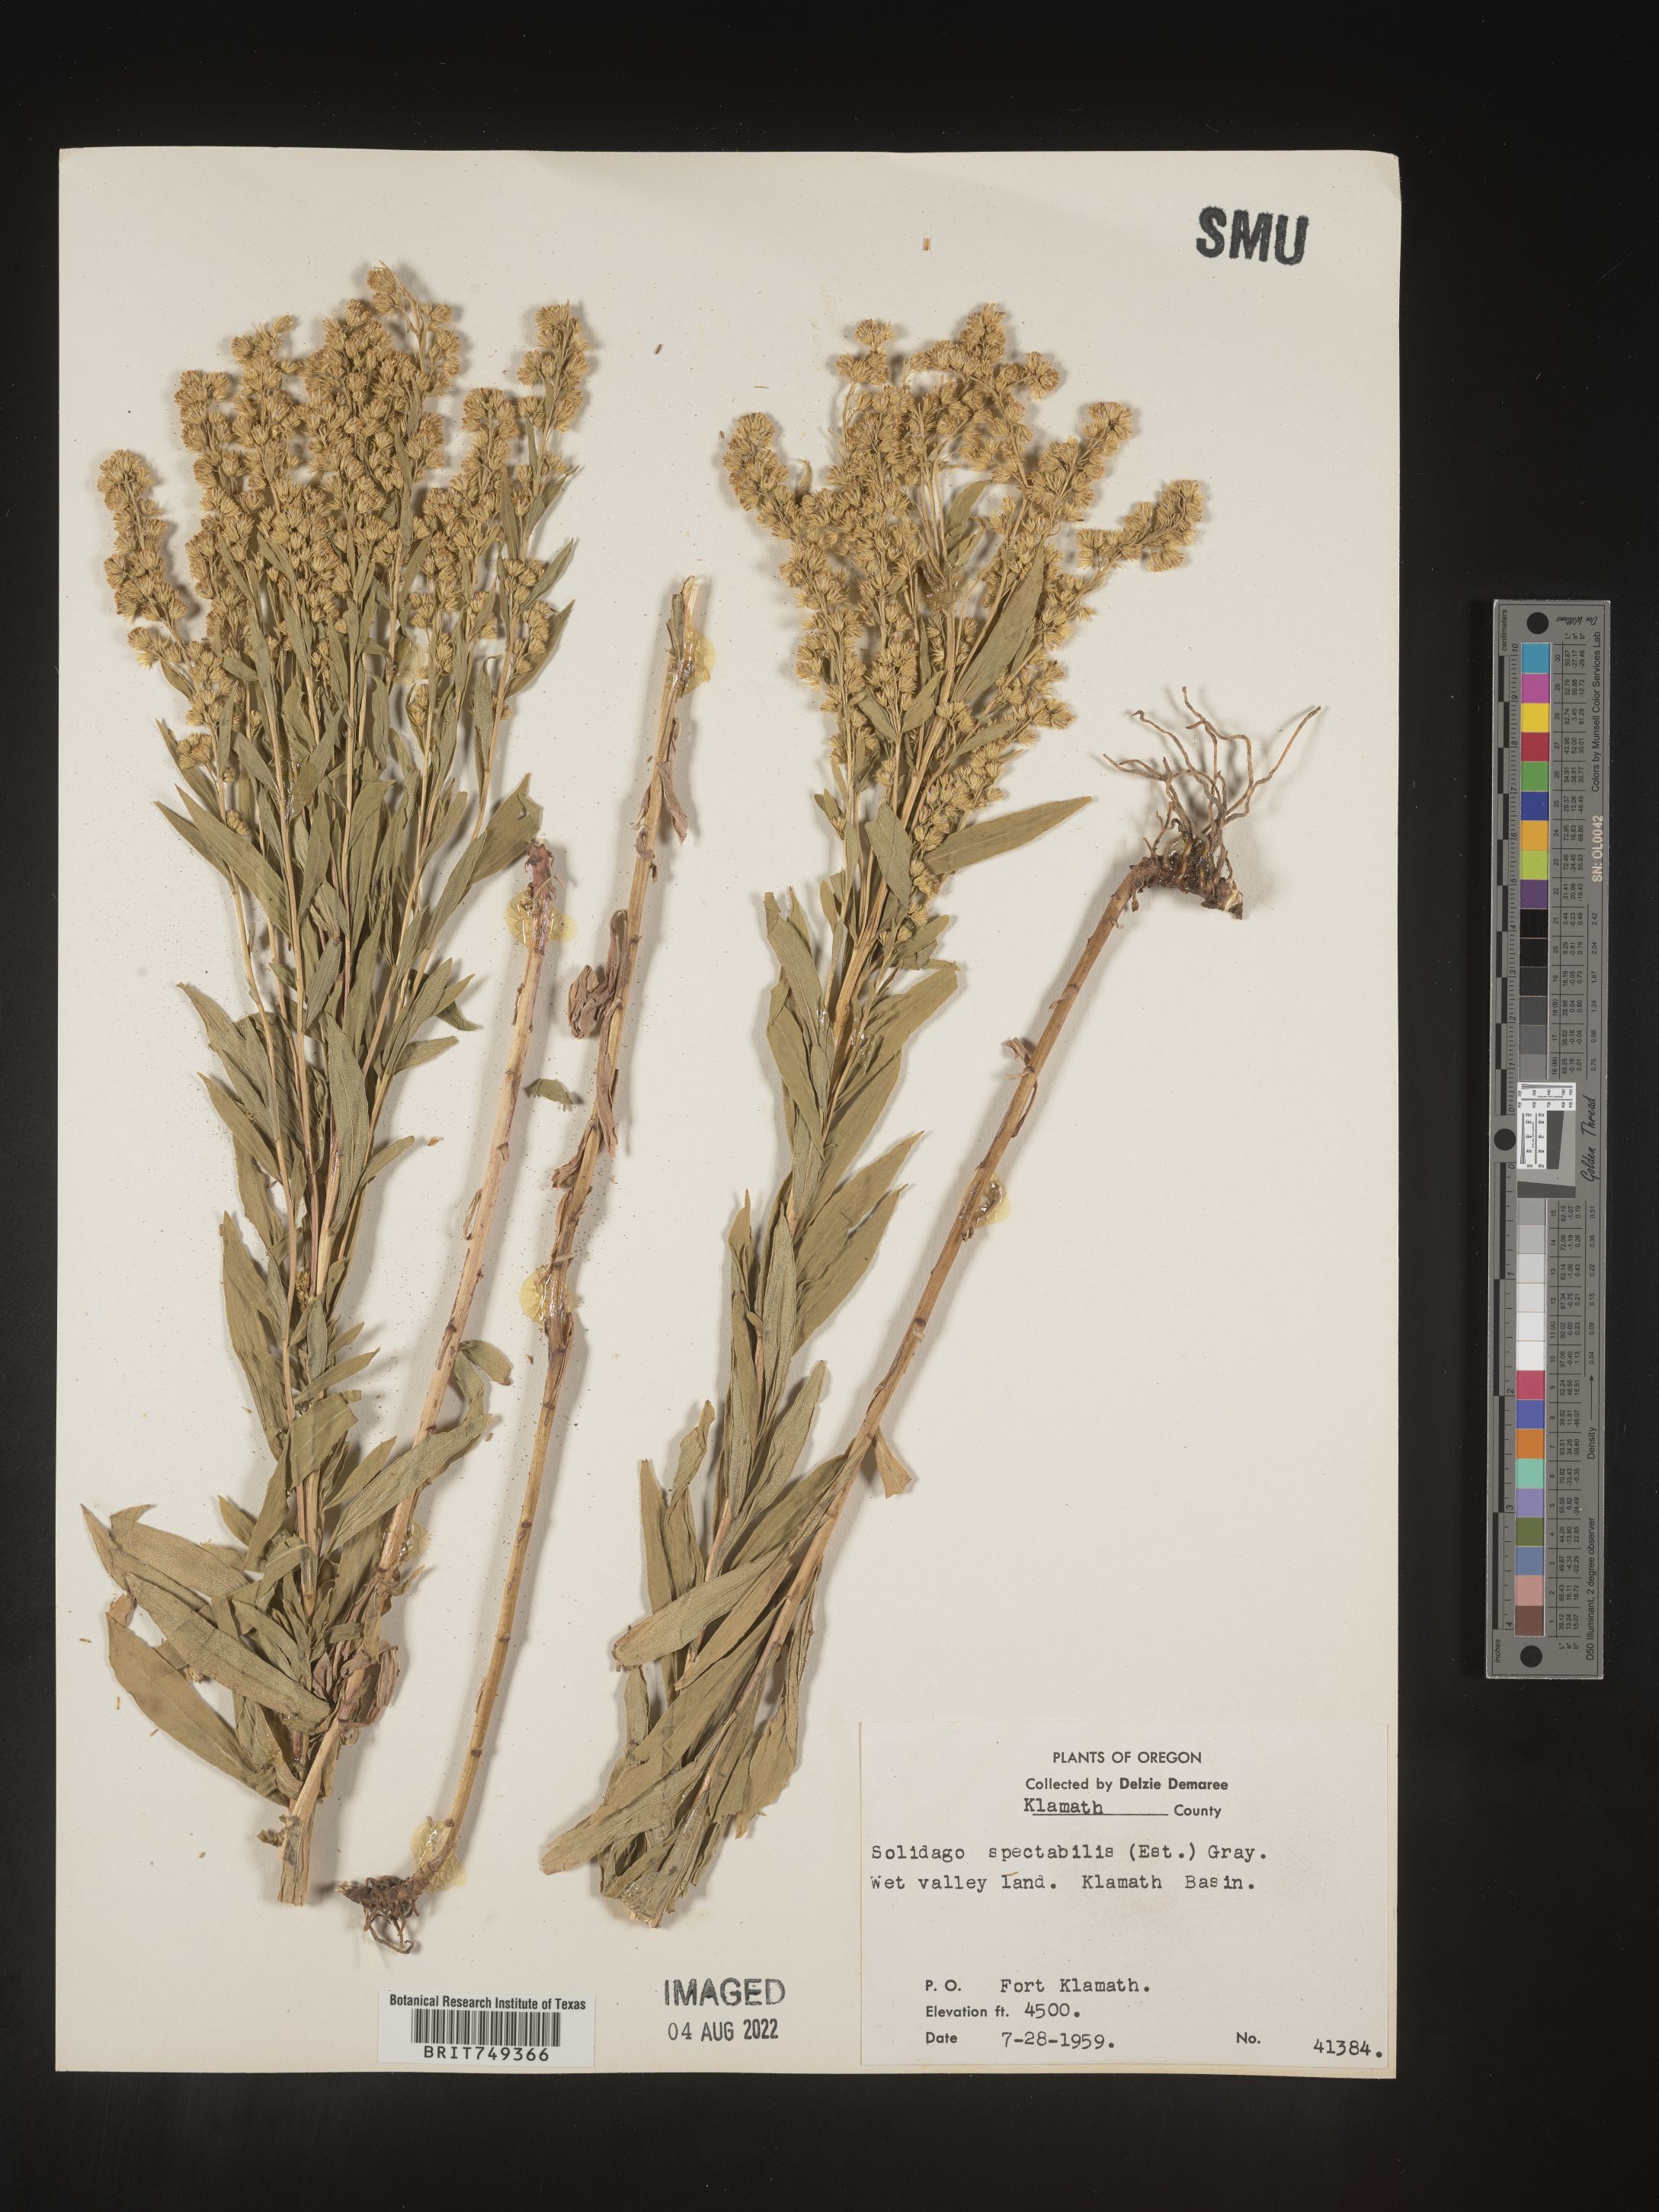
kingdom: Plantae
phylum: Tracheophyta
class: Magnoliopsida
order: Asterales
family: Asteraceae
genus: Solidago
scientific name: Solidago spectabilis
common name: Basin goldenrod
